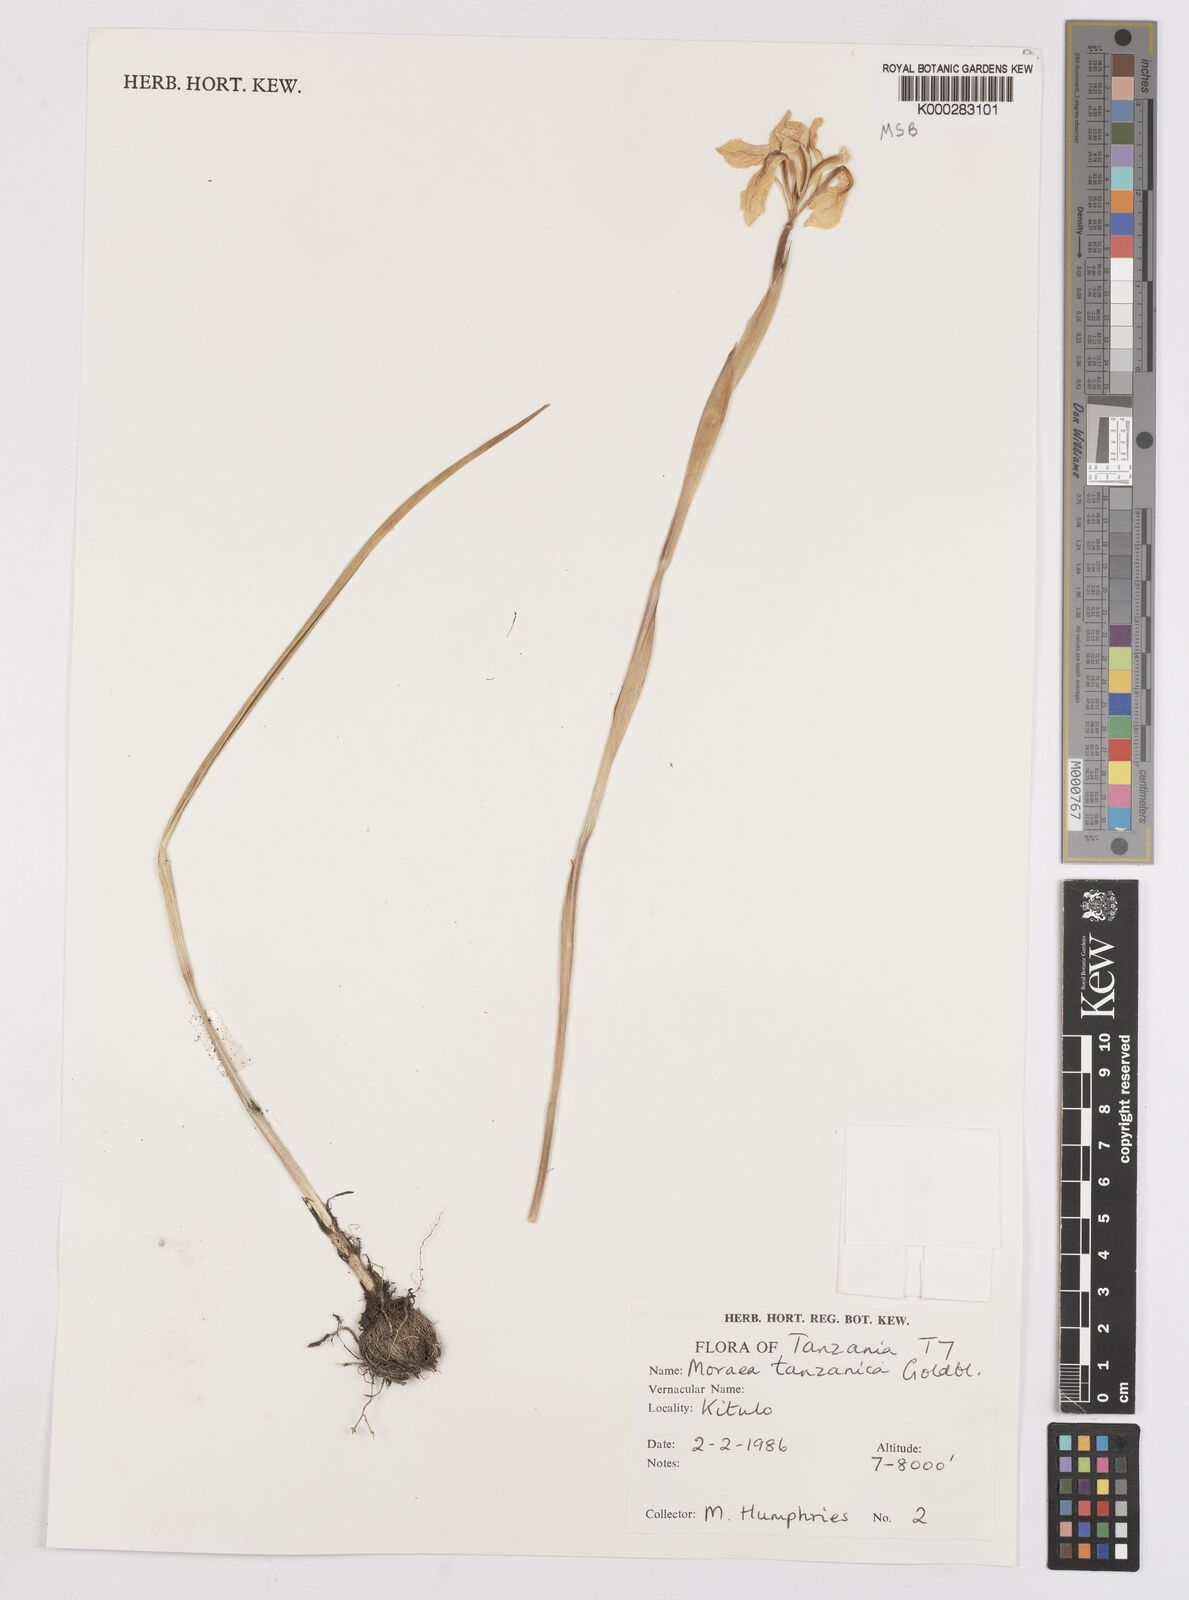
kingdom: Plantae
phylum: Tracheophyta
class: Liliopsida
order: Asparagales
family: Iridaceae
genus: Moraea
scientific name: Moraea tanzanica
